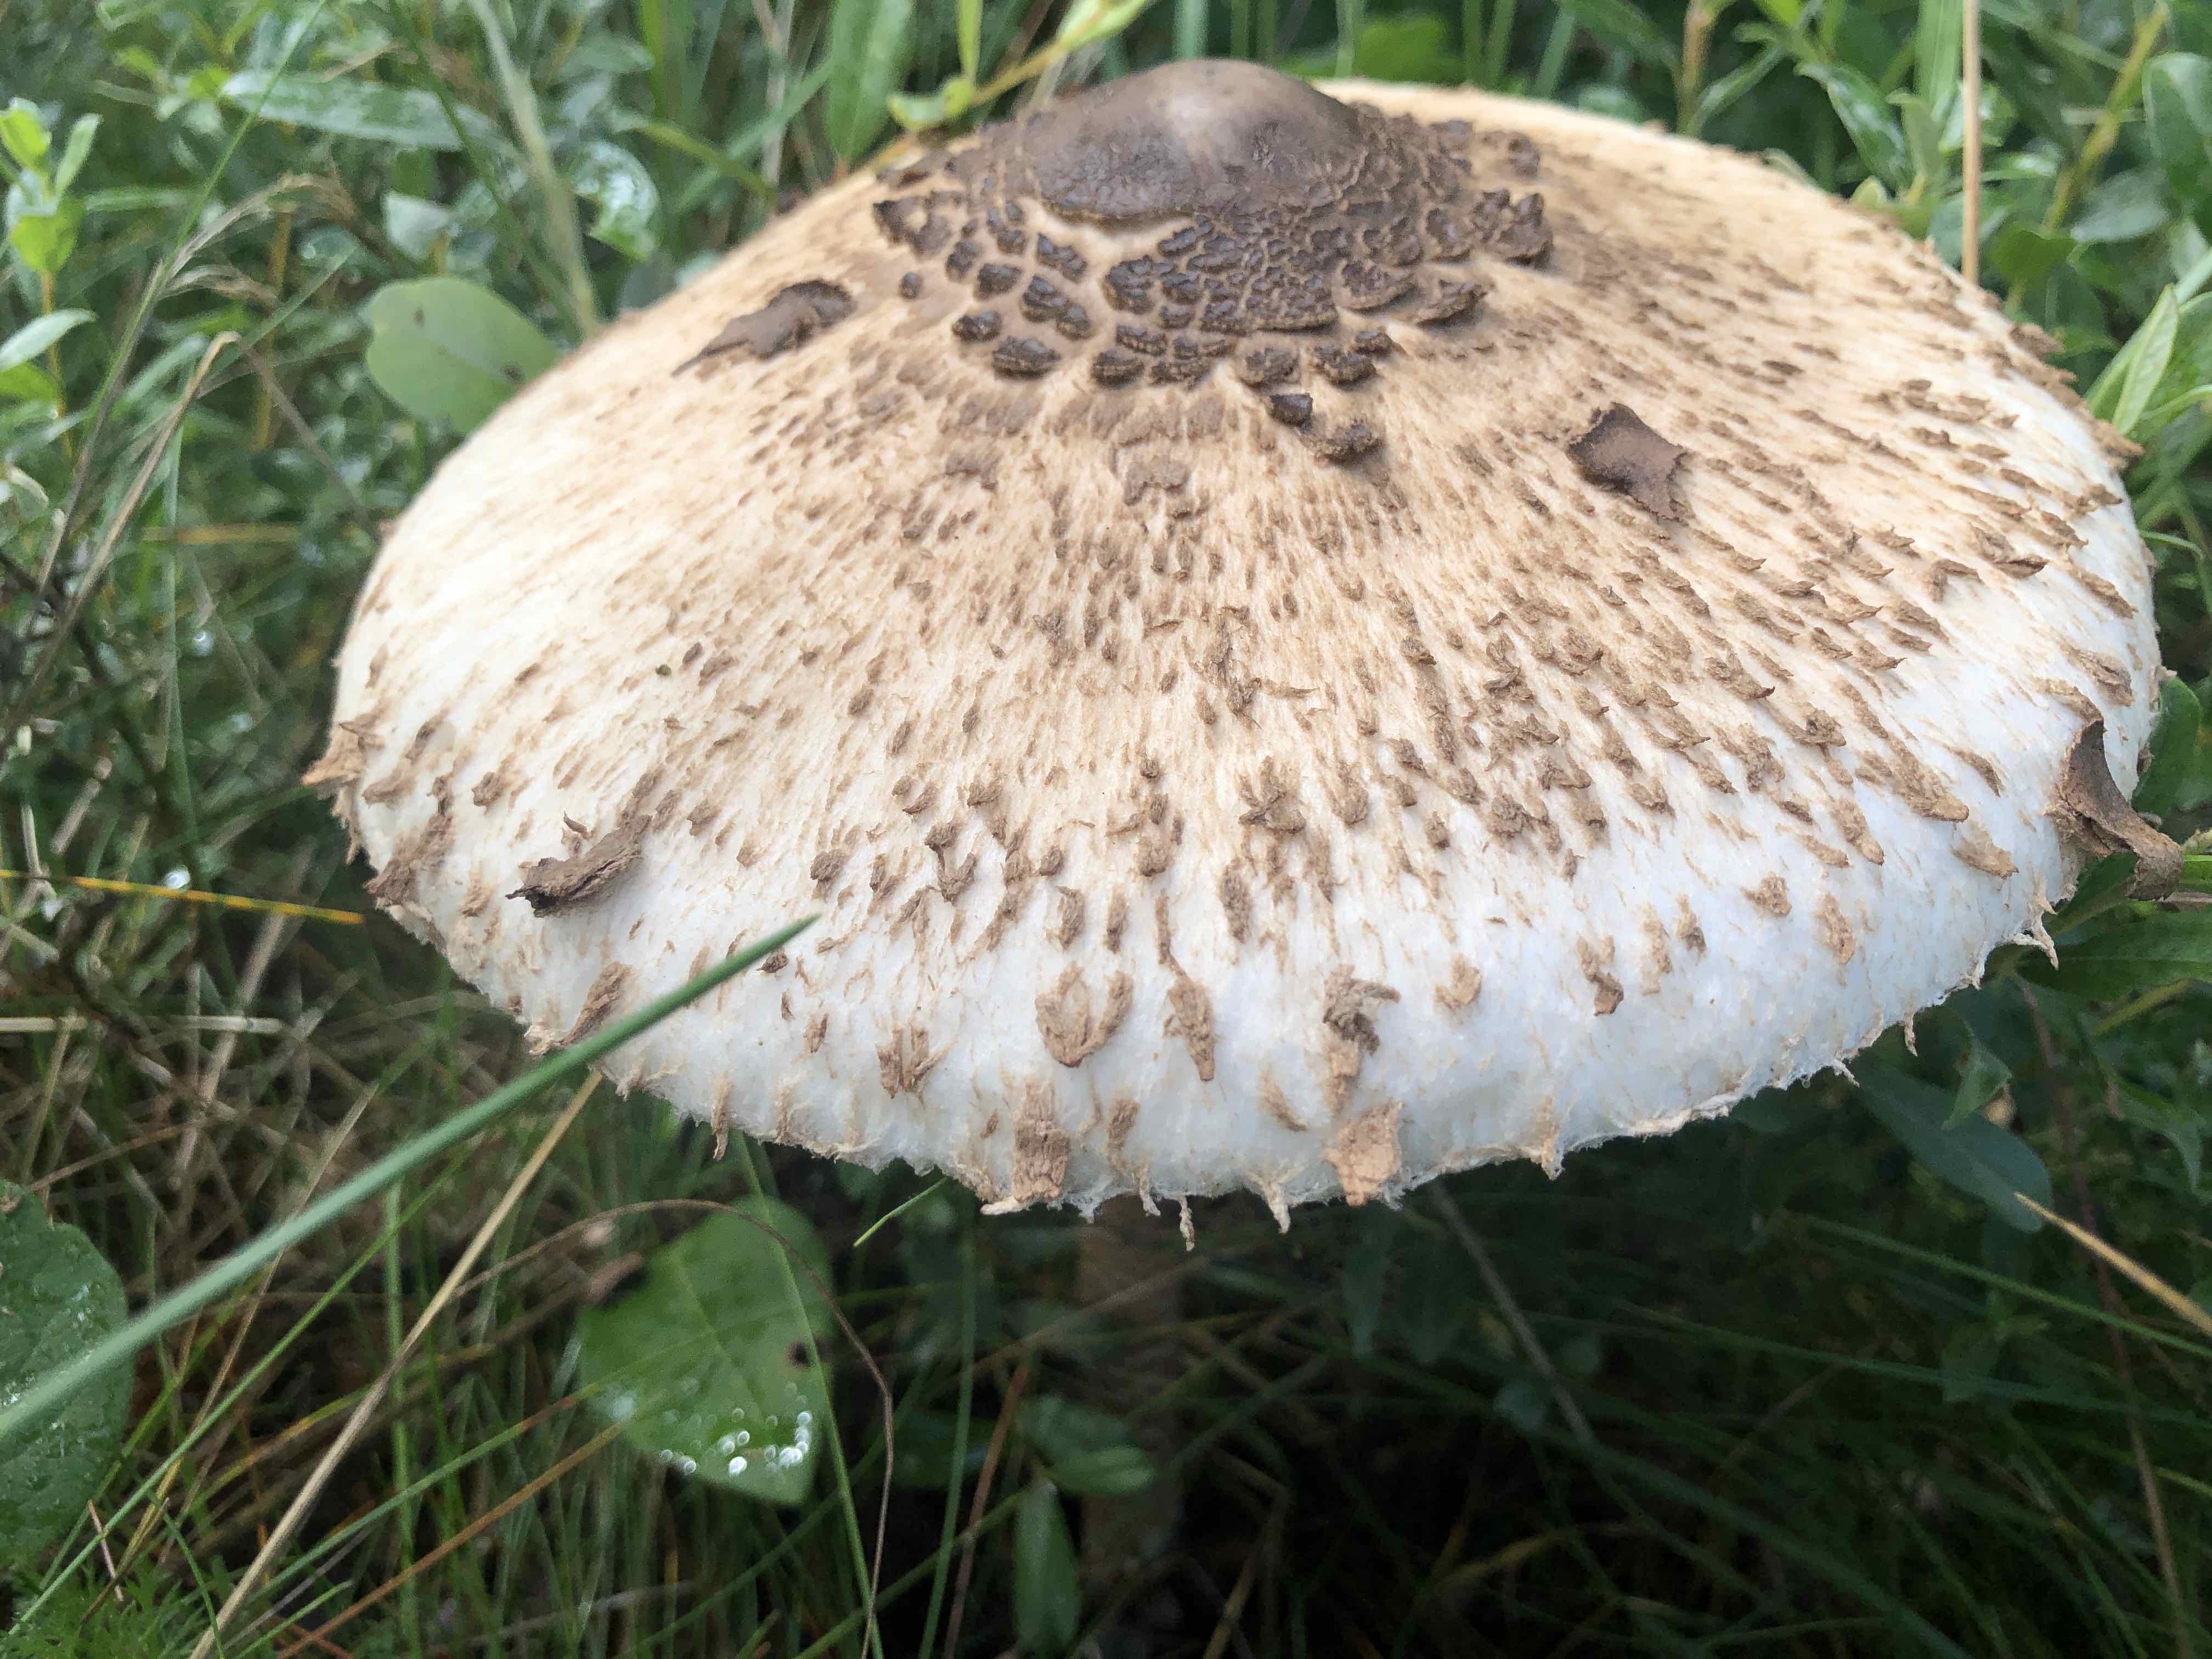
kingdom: Fungi
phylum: Basidiomycota
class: Agaricomycetes
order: Agaricales
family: Agaricaceae
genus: Macrolepiota
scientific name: Macrolepiota procera
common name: stor kæmpeparasolhat
